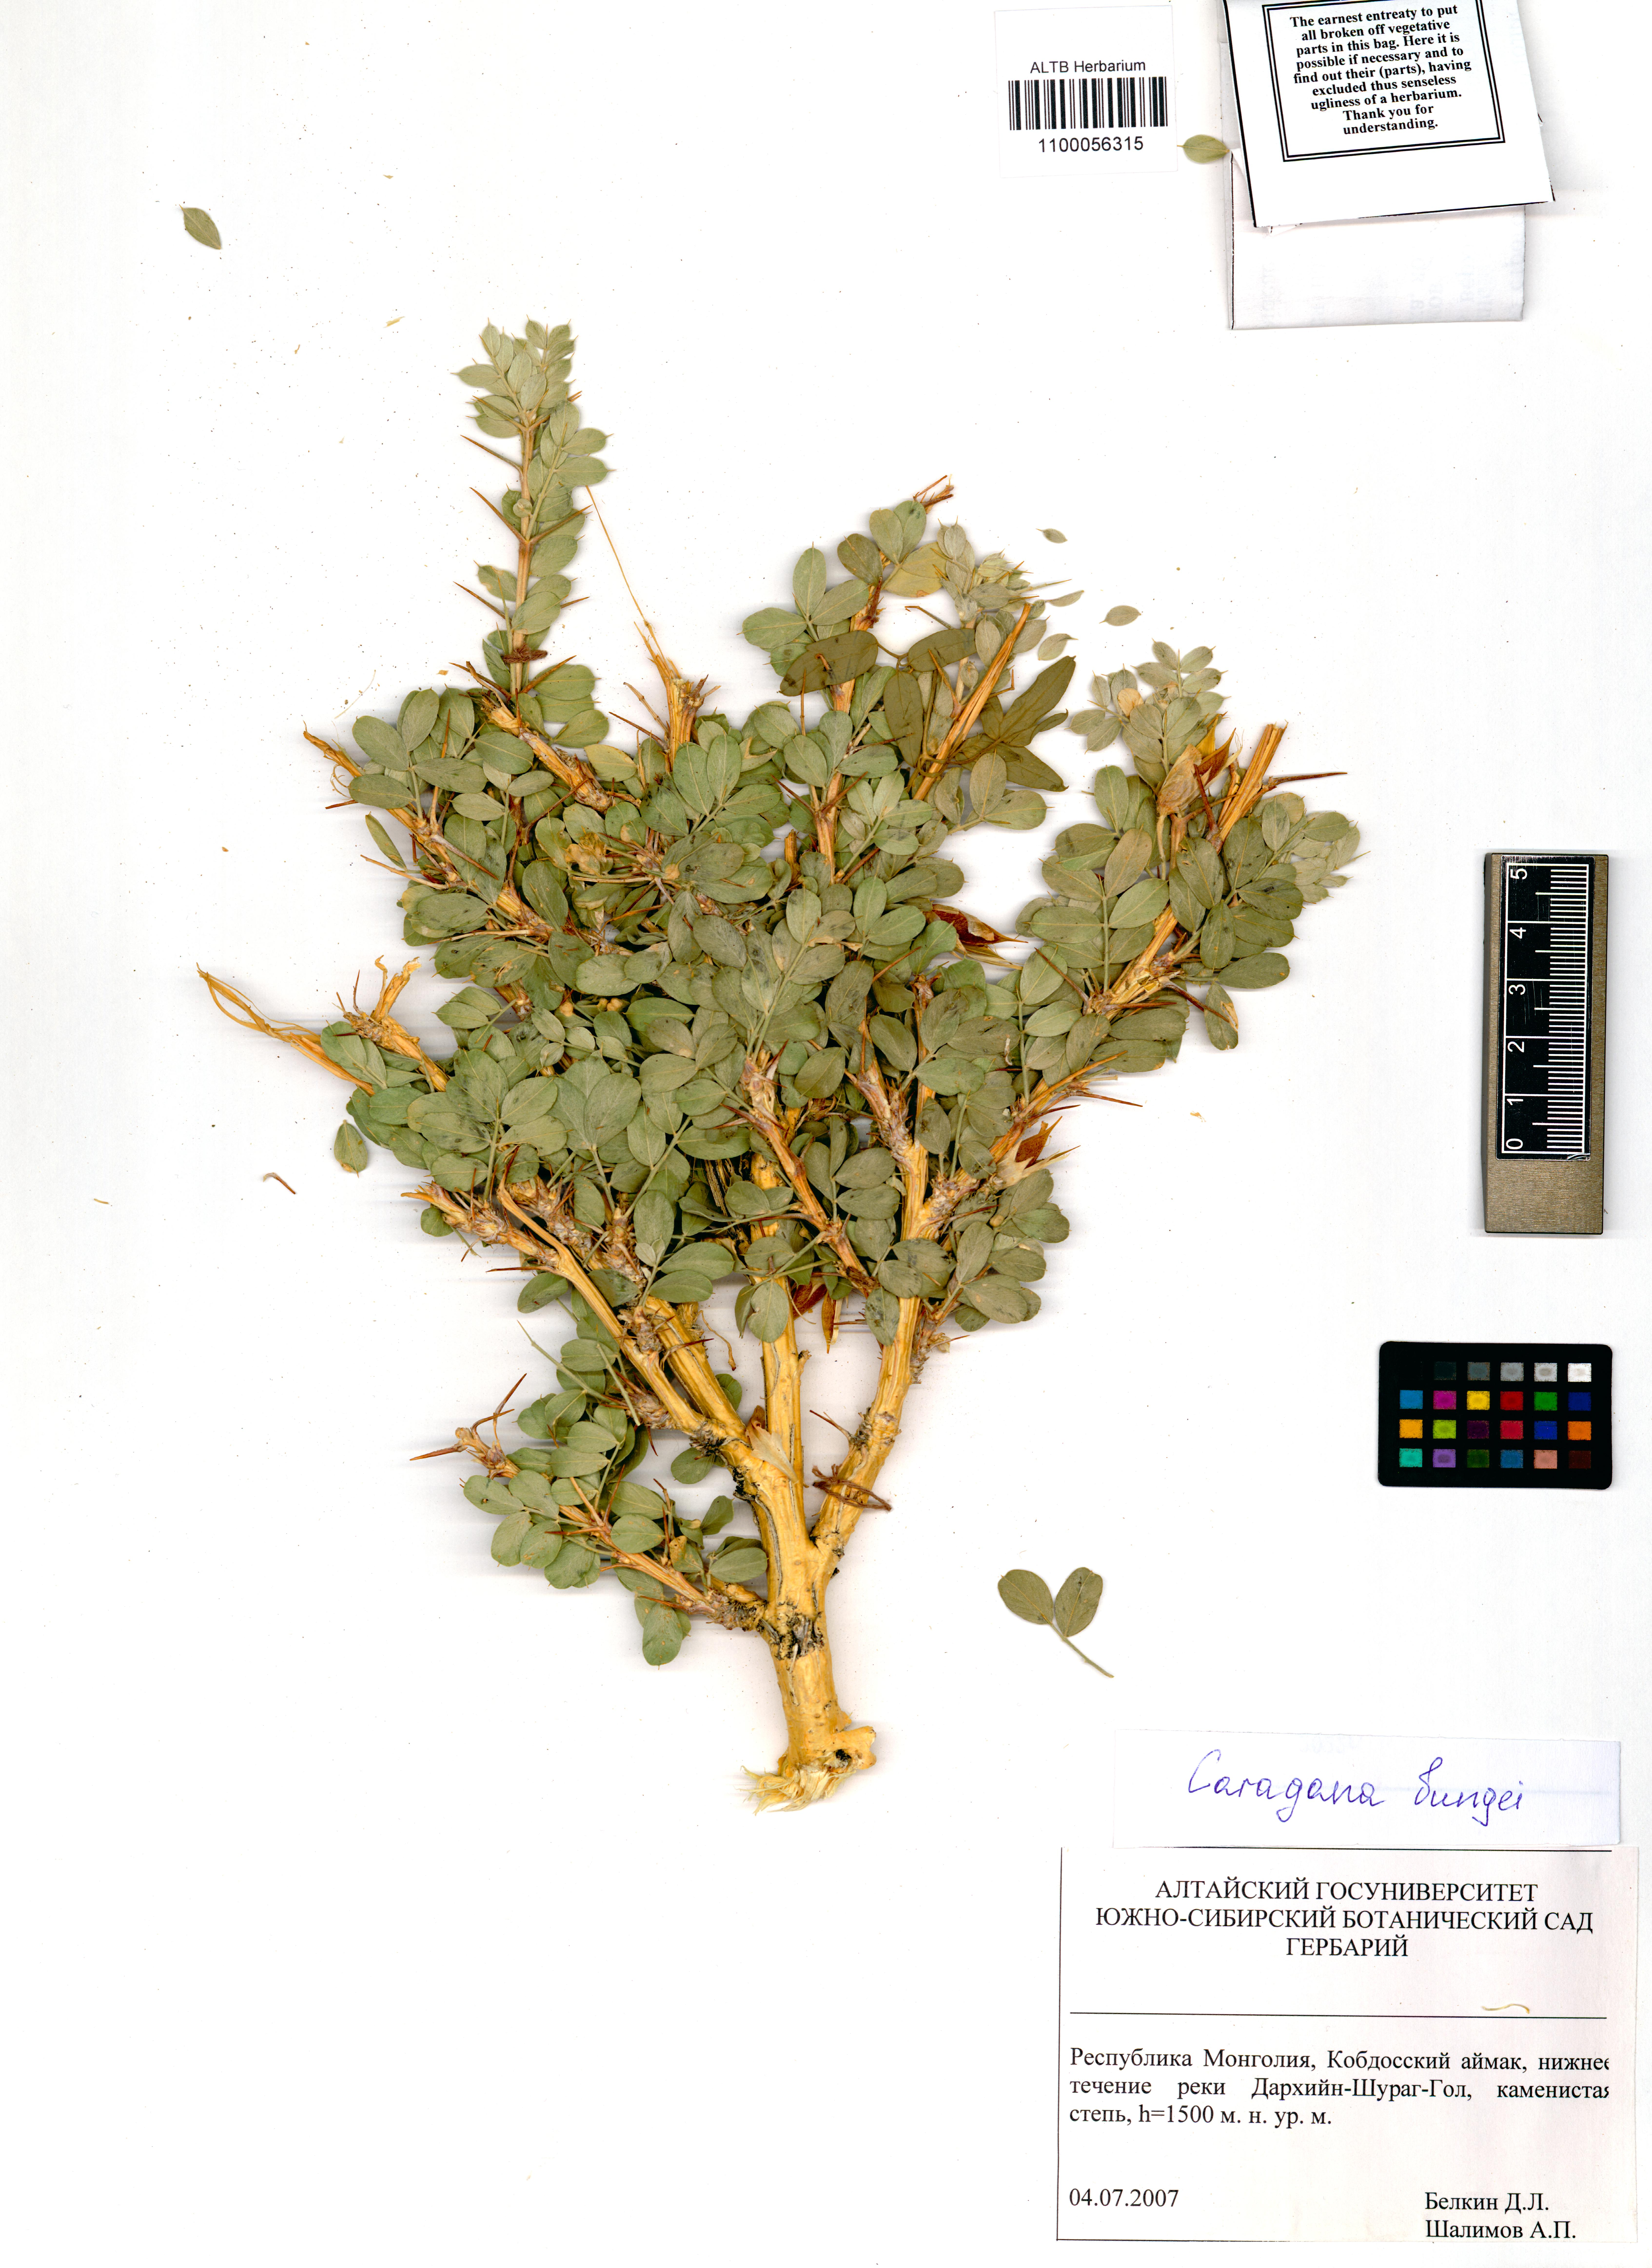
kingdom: Plantae
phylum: Tracheophyta
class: Magnoliopsida
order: Fabales
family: Fabaceae
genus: Caragana
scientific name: Caragana bungei
